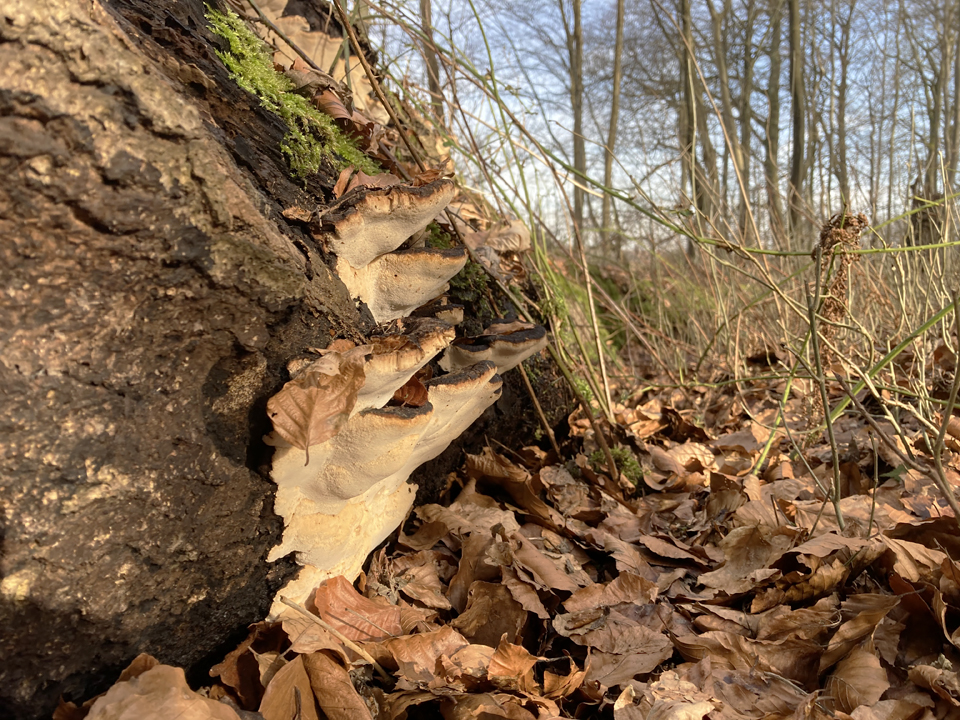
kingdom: Fungi
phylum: Basidiomycota
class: Agaricomycetes
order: Polyporales
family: Ischnodermataceae
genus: Ischnoderma
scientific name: Ischnoderma resinosum
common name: løv-tjæreporesvamp
